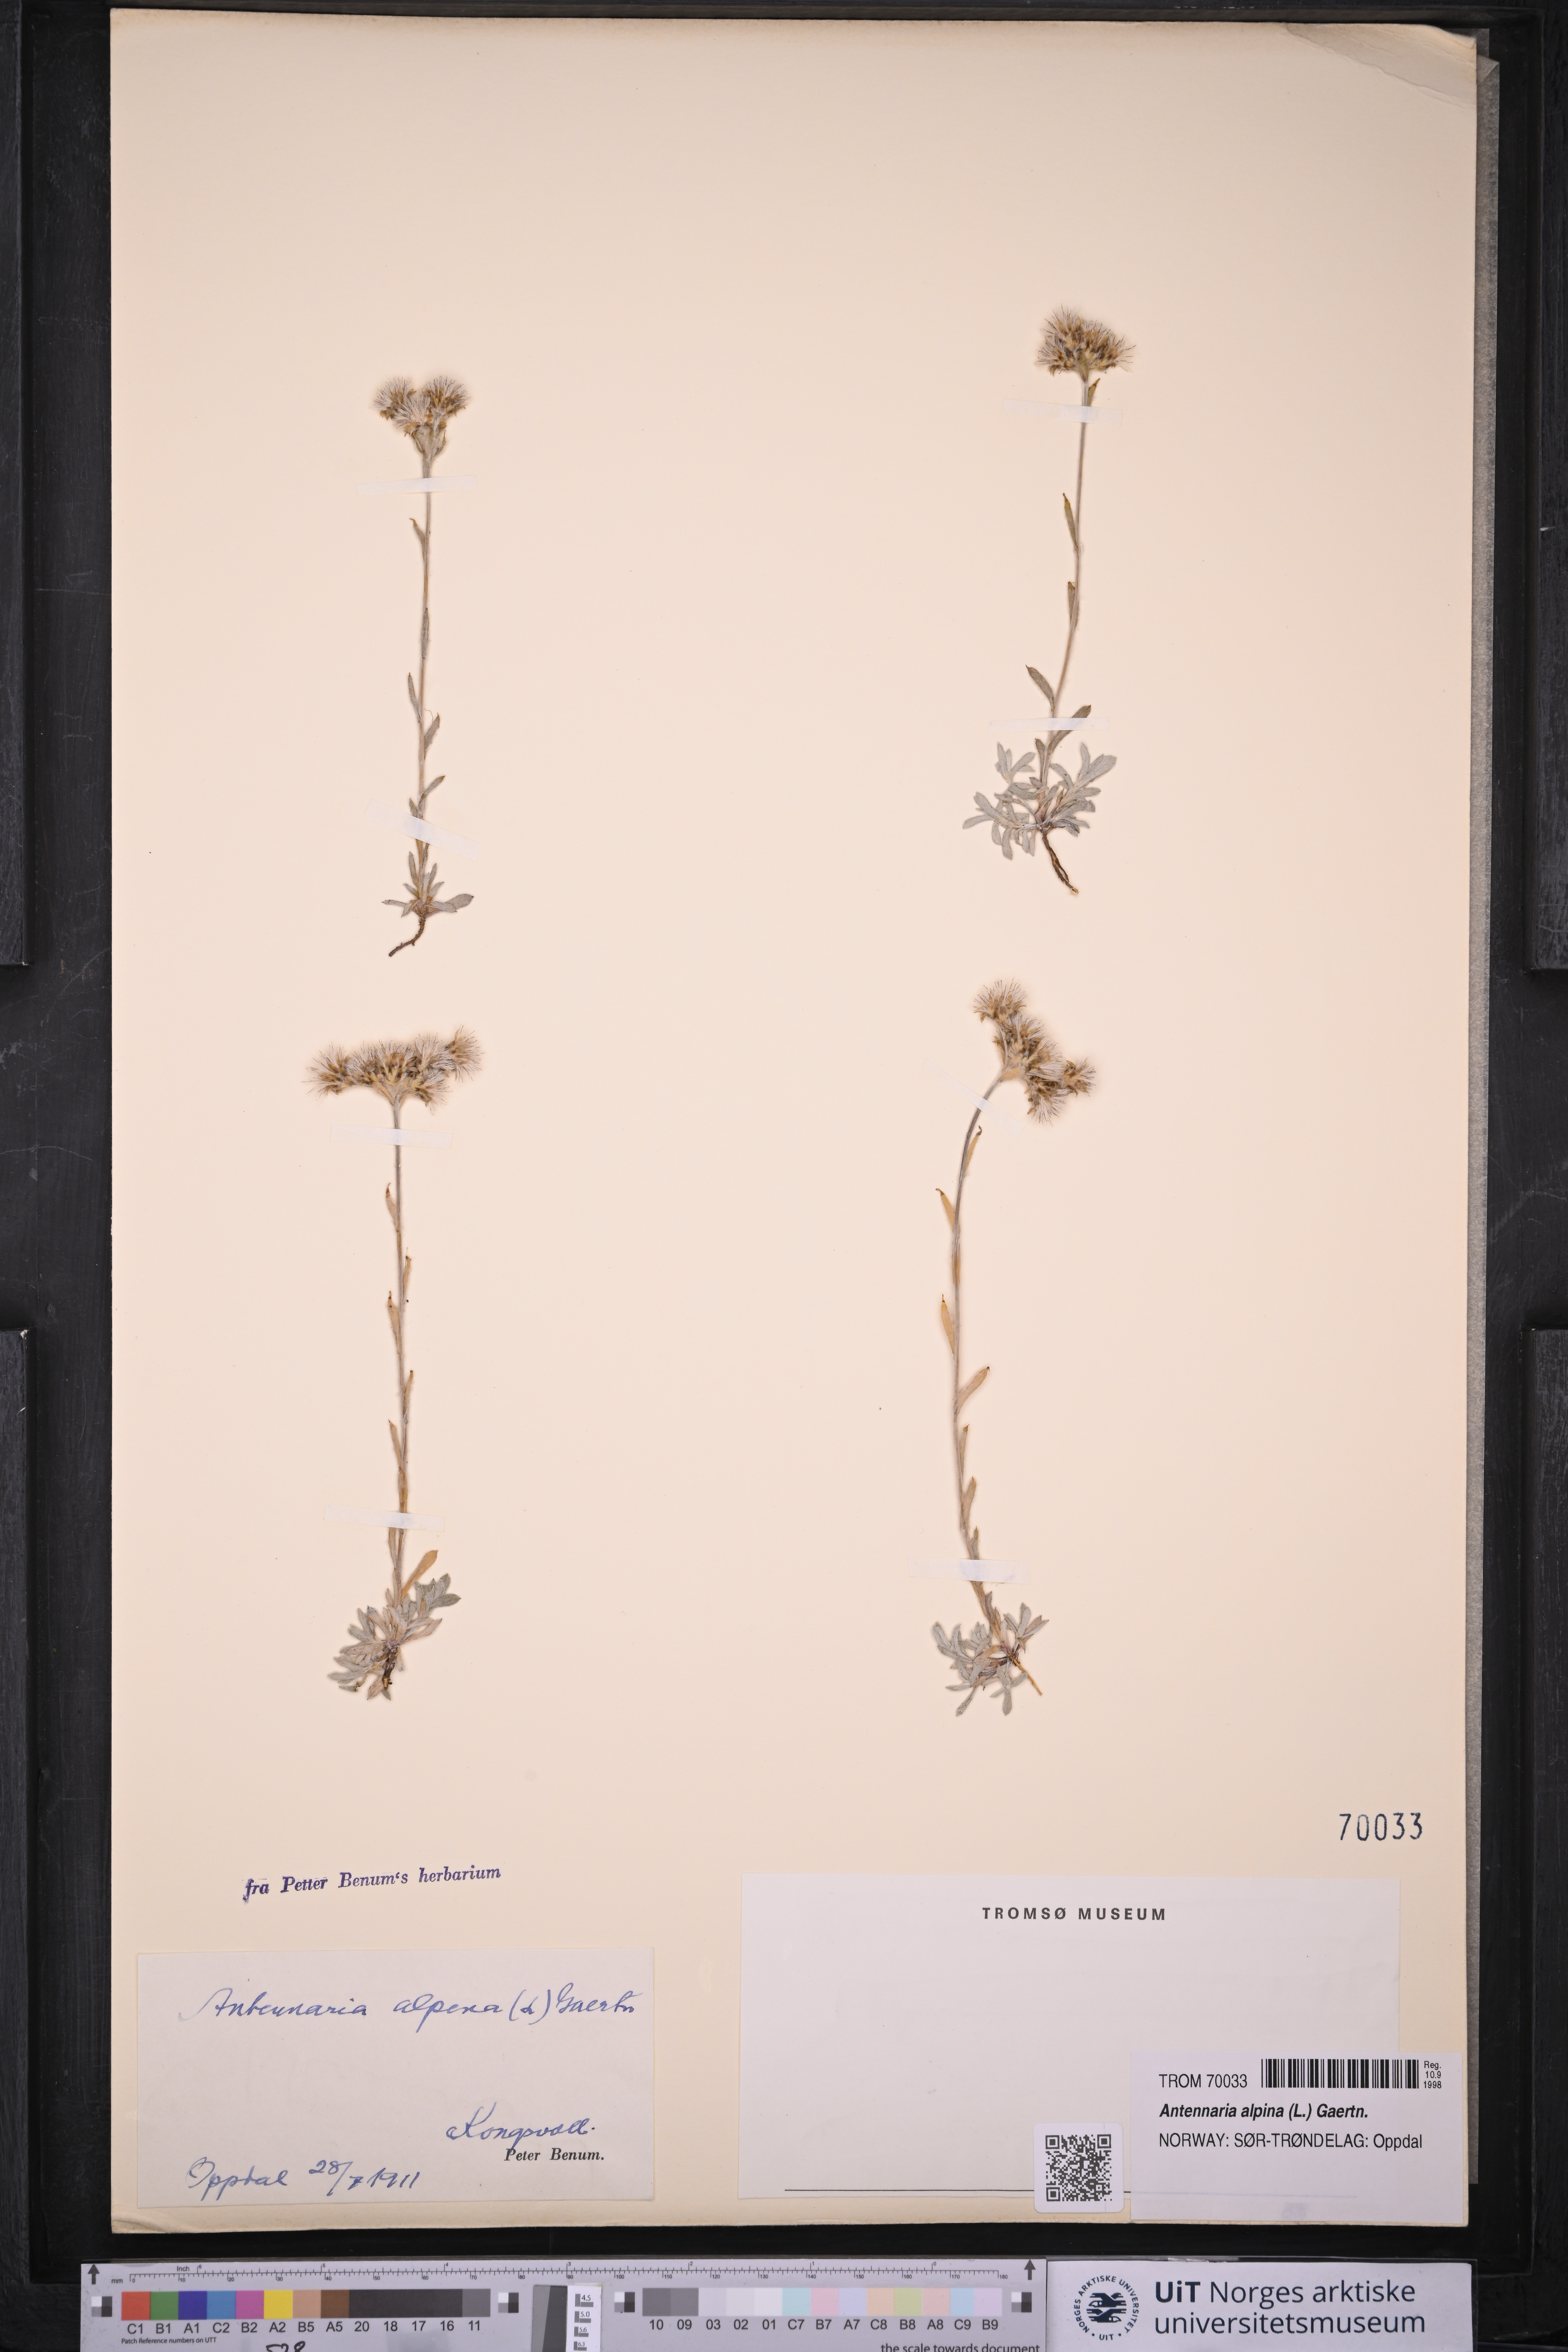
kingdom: Plantae
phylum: Tracheophyta
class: Magnoliopsida
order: Asterales
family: Asteraceae
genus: Antennaria
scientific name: Antennaria alpina
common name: Alpine pussytoes
